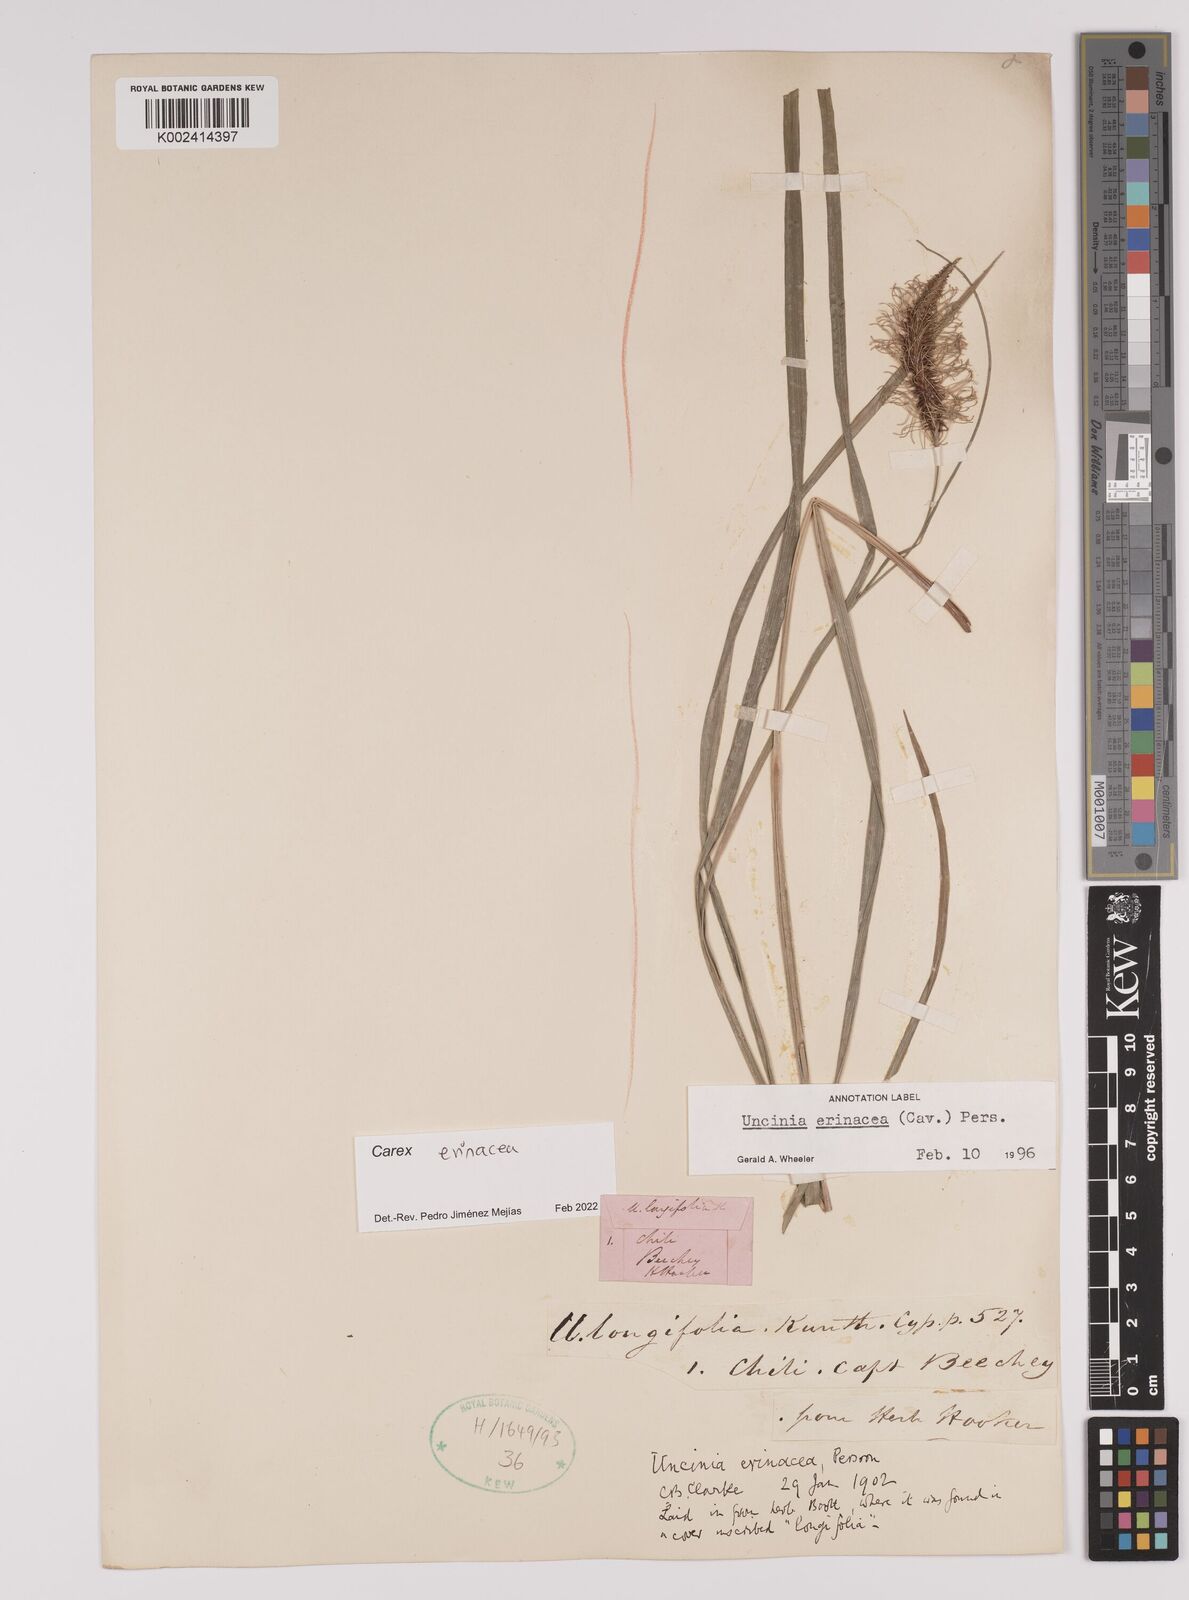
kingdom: Plantae
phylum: Tracheophyta
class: Liliopsida
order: Poales
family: Cyperaceae
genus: Carex
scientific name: Carex erinacea
